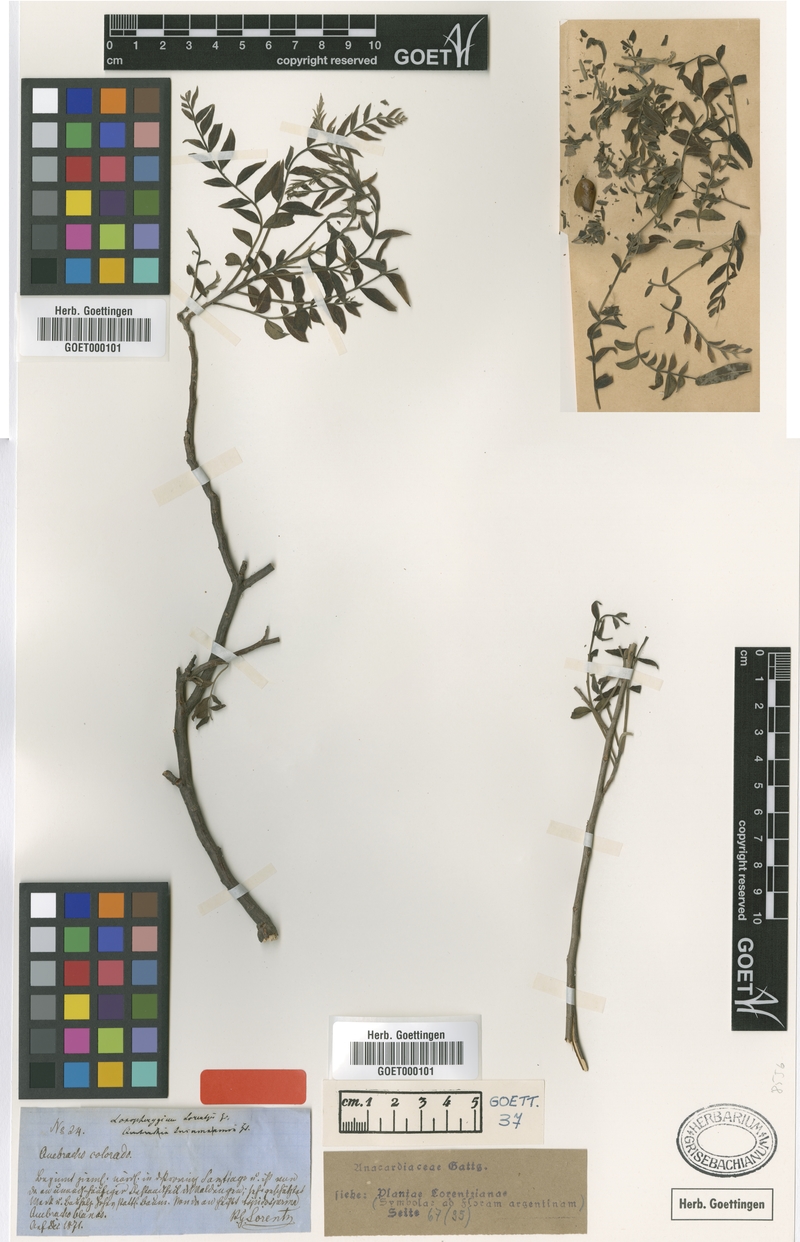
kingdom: Plantae
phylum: Tracheophyta
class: Magnoliopsida
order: Sapindales
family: Anacardiaceae
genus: Schinopsis
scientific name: Schinopsis lorentzii
